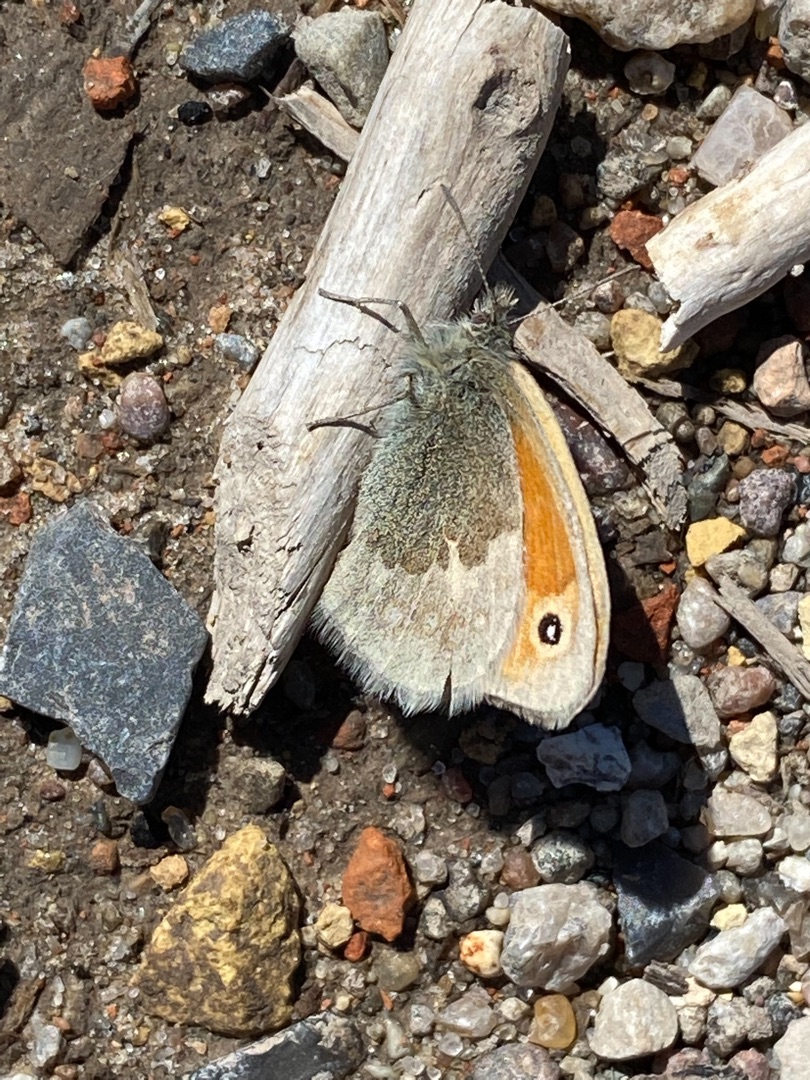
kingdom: Animalia
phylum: Arthropoda
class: Insecta
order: Lepidoptera
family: Nymphalidae
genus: Coenonympha
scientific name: Coenonympha pamphilus
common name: Okkergul randøje
